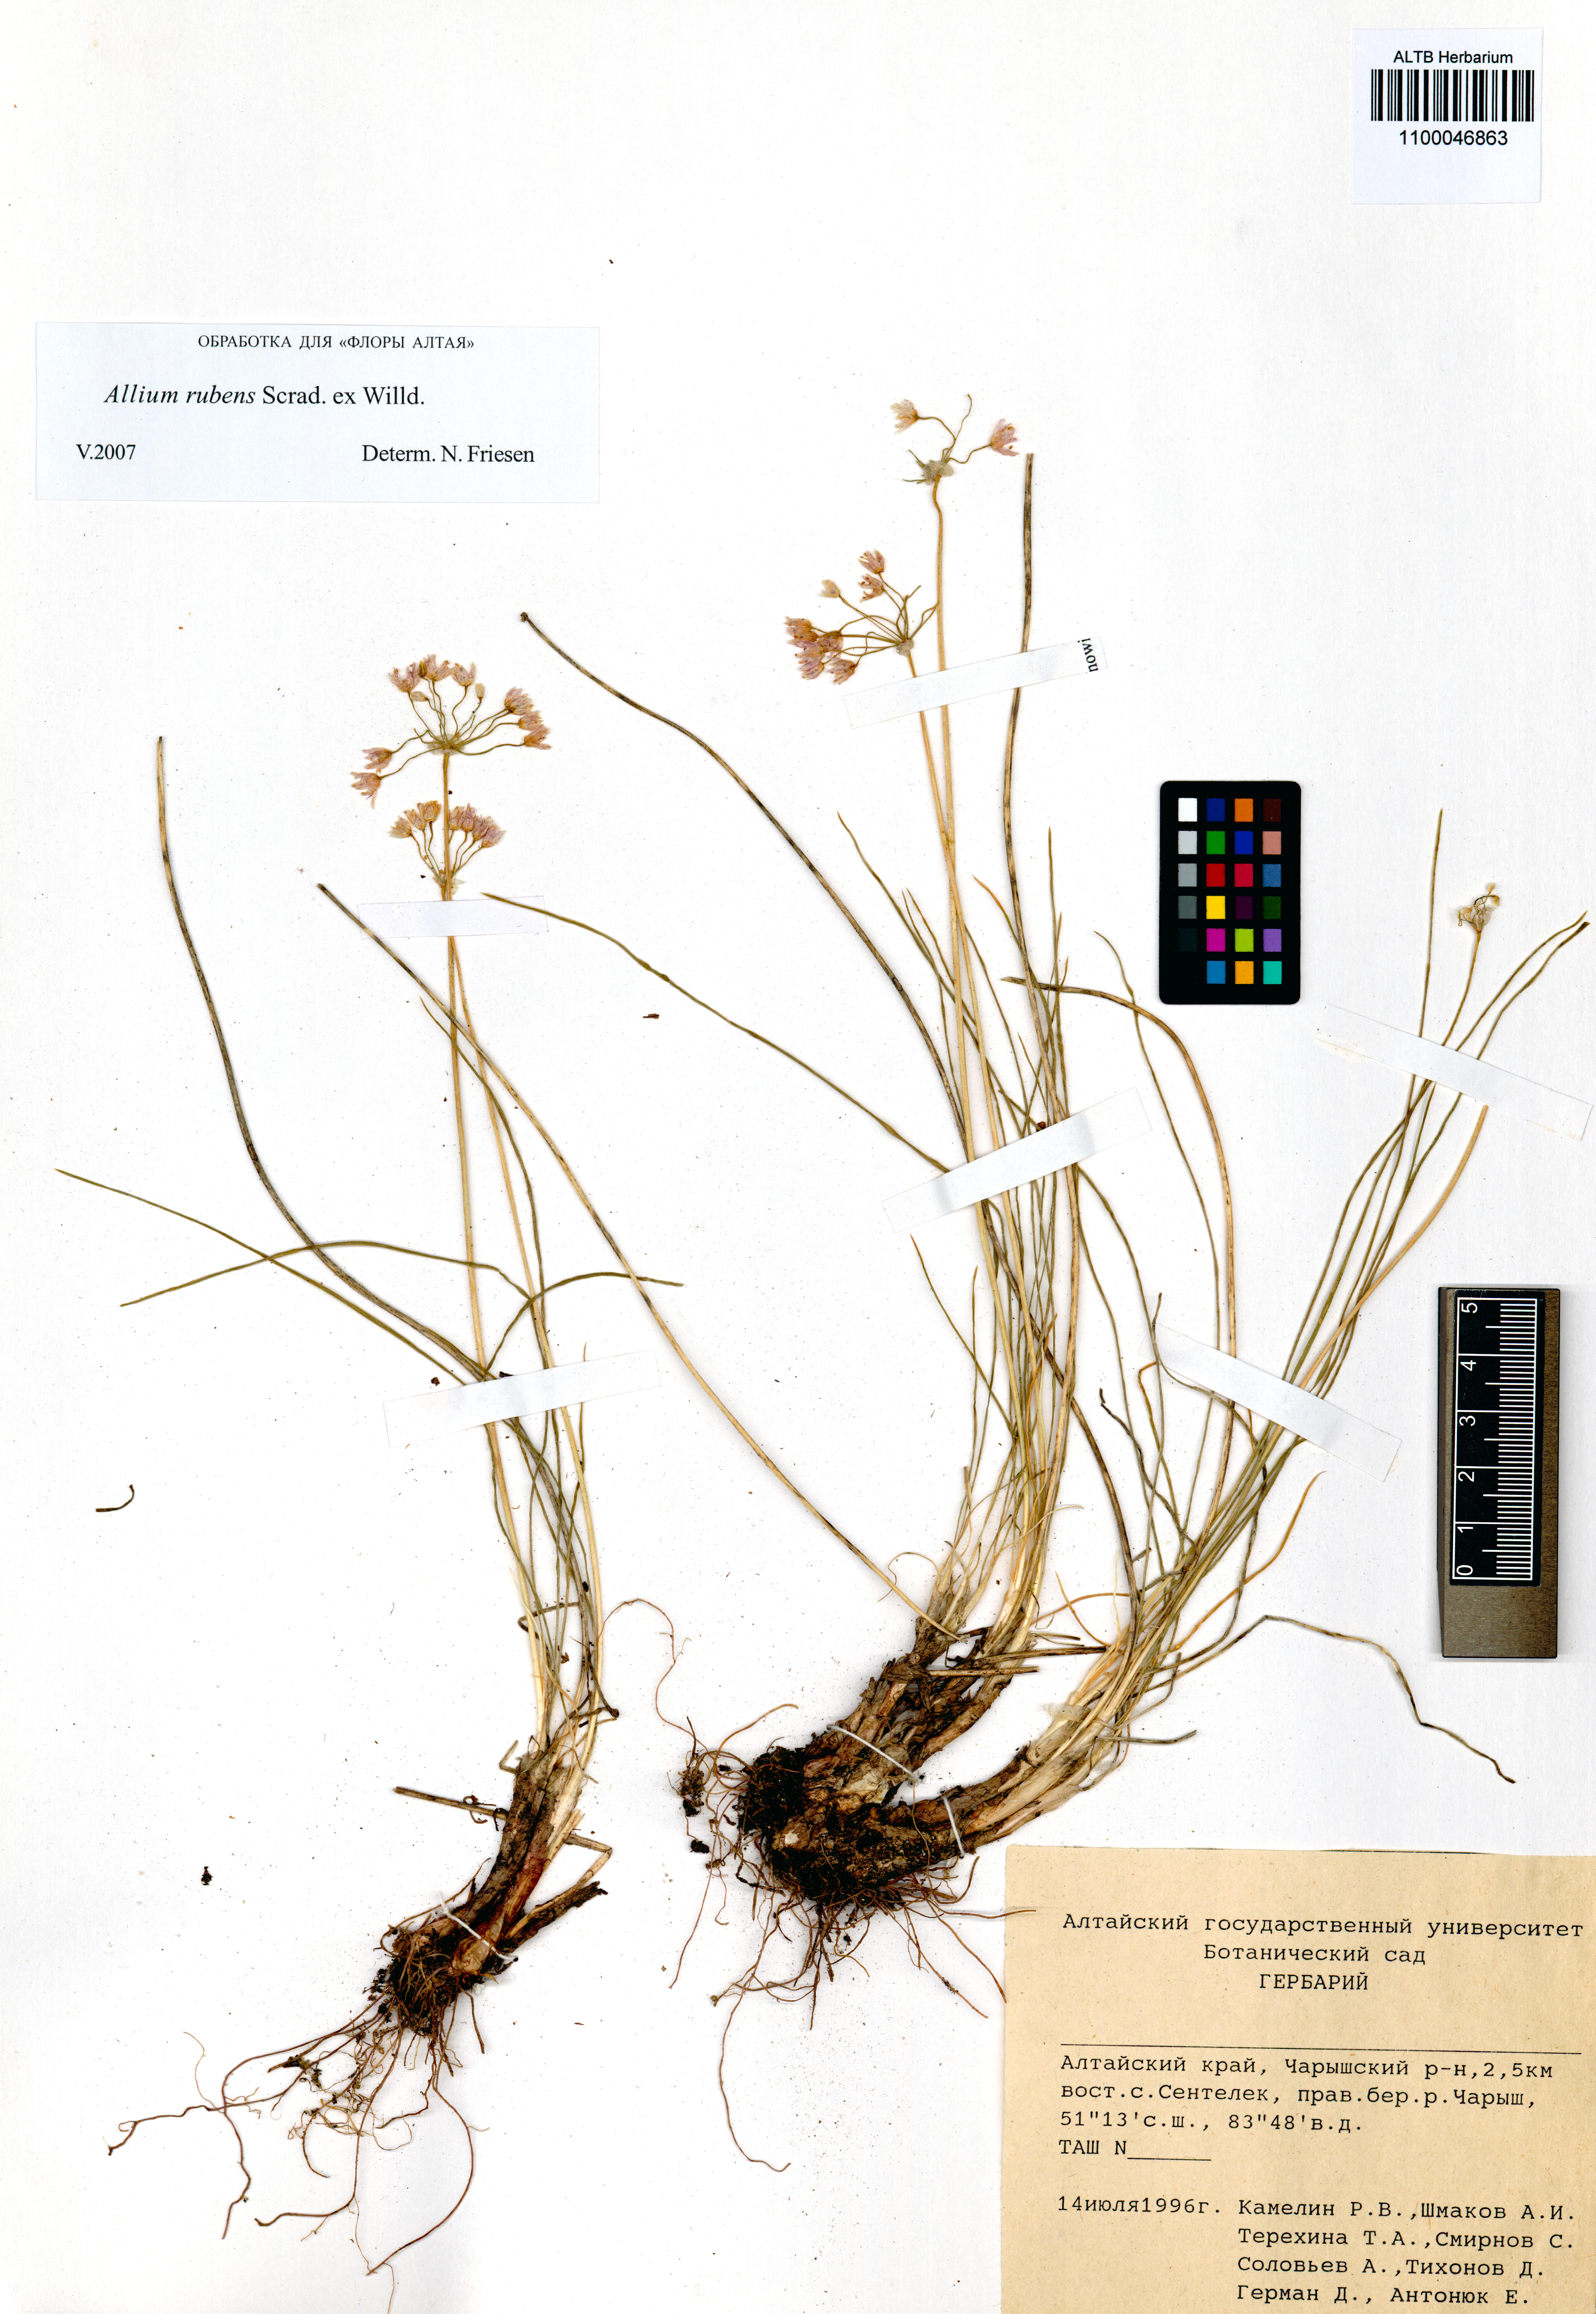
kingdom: Plantae
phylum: Tracheophyta
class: Liliopsida
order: Asparagales
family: Amaryllidaceae
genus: Allium
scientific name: Allium rubens
